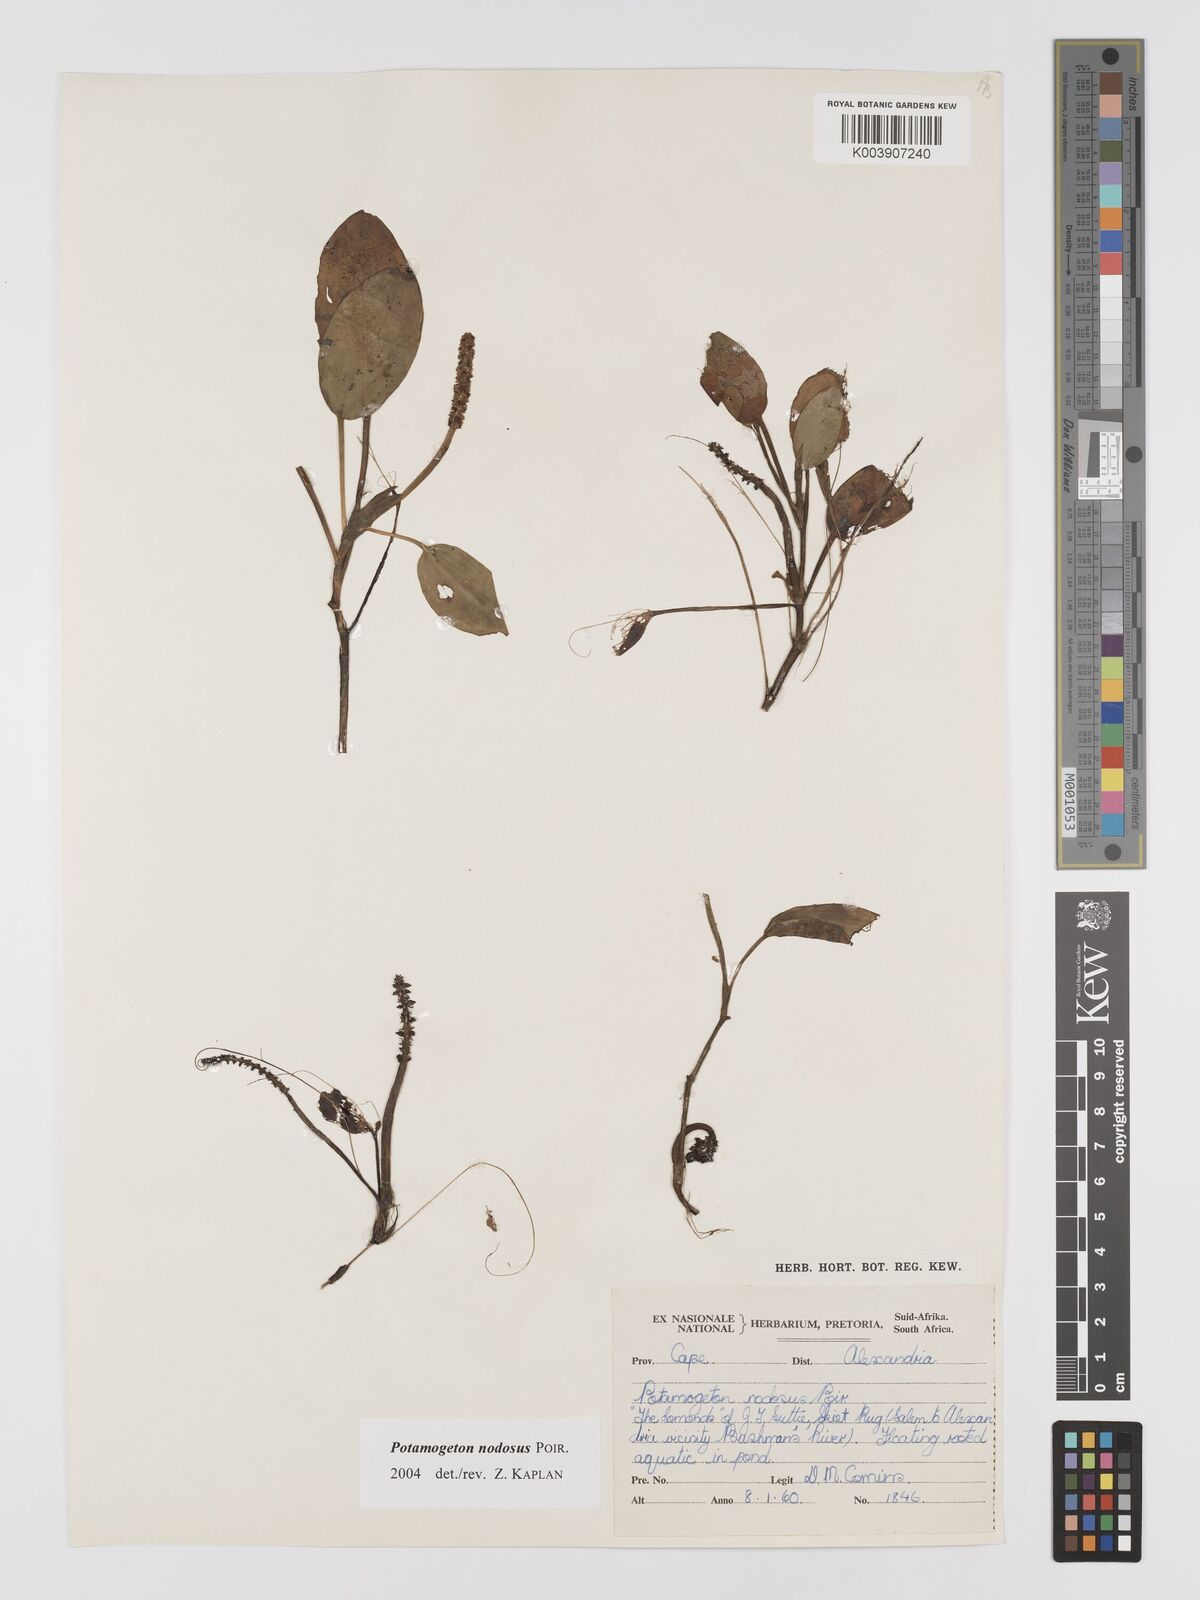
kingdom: Plantae
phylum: Tracheophyta
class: Liliopsida
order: Alismatales
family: Potamogetonaceae
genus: Potamogeton
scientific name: Potamogeton nodosus
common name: Loddon pondweed
